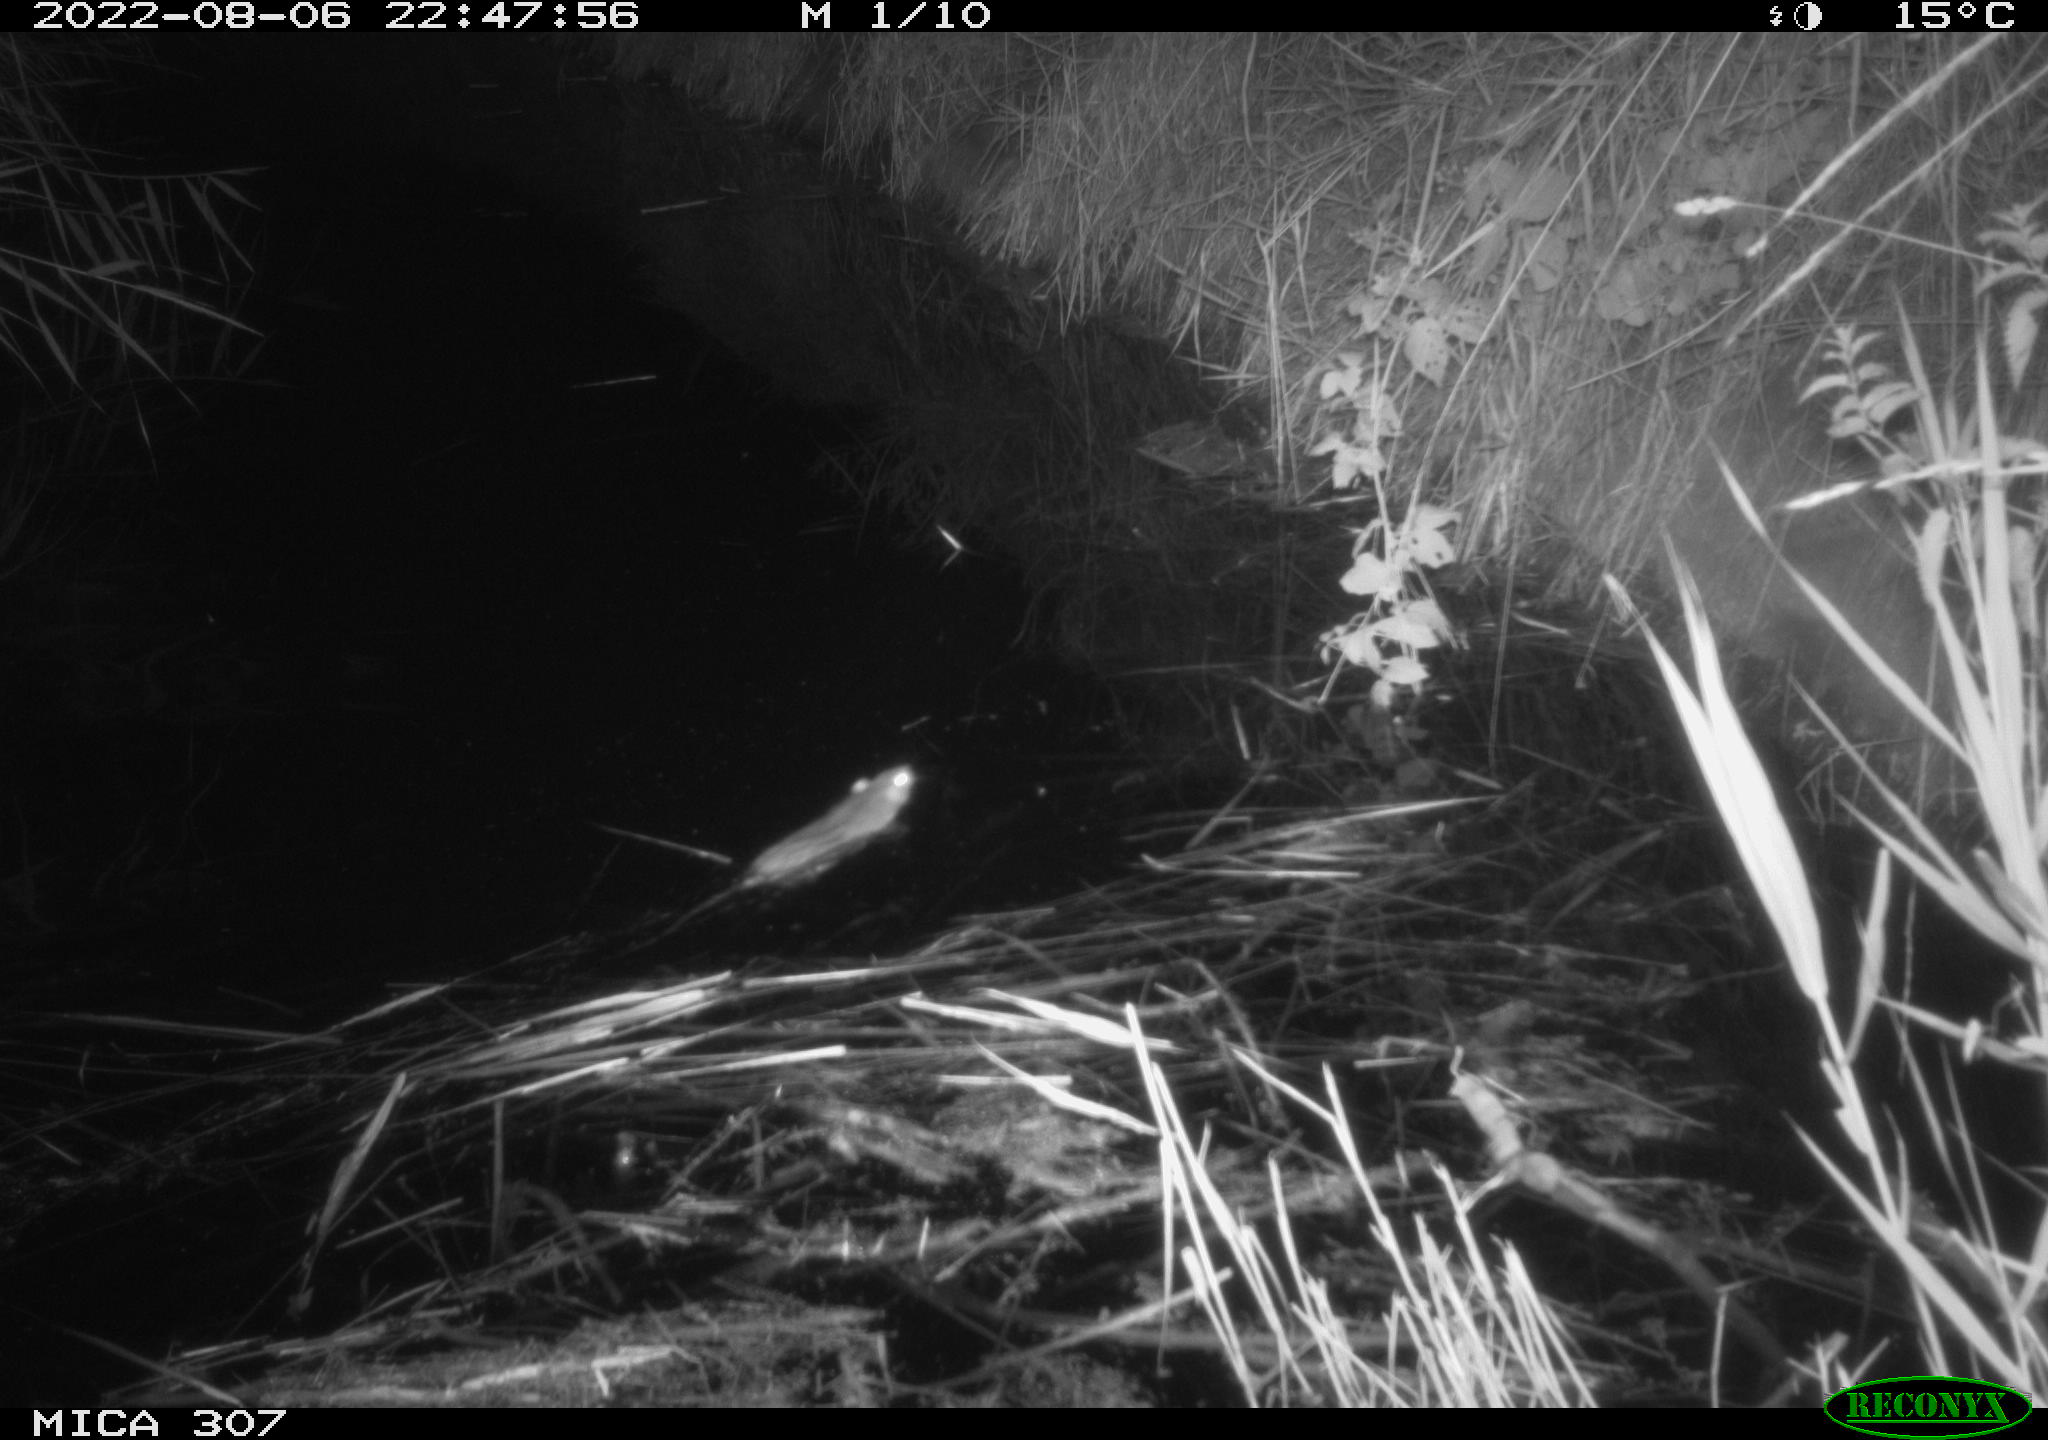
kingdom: Animalia
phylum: Chordata
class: Mammalia
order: Rodentia
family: Muridae
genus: Rattus
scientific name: Rattus norvegicus
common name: Brown rat
